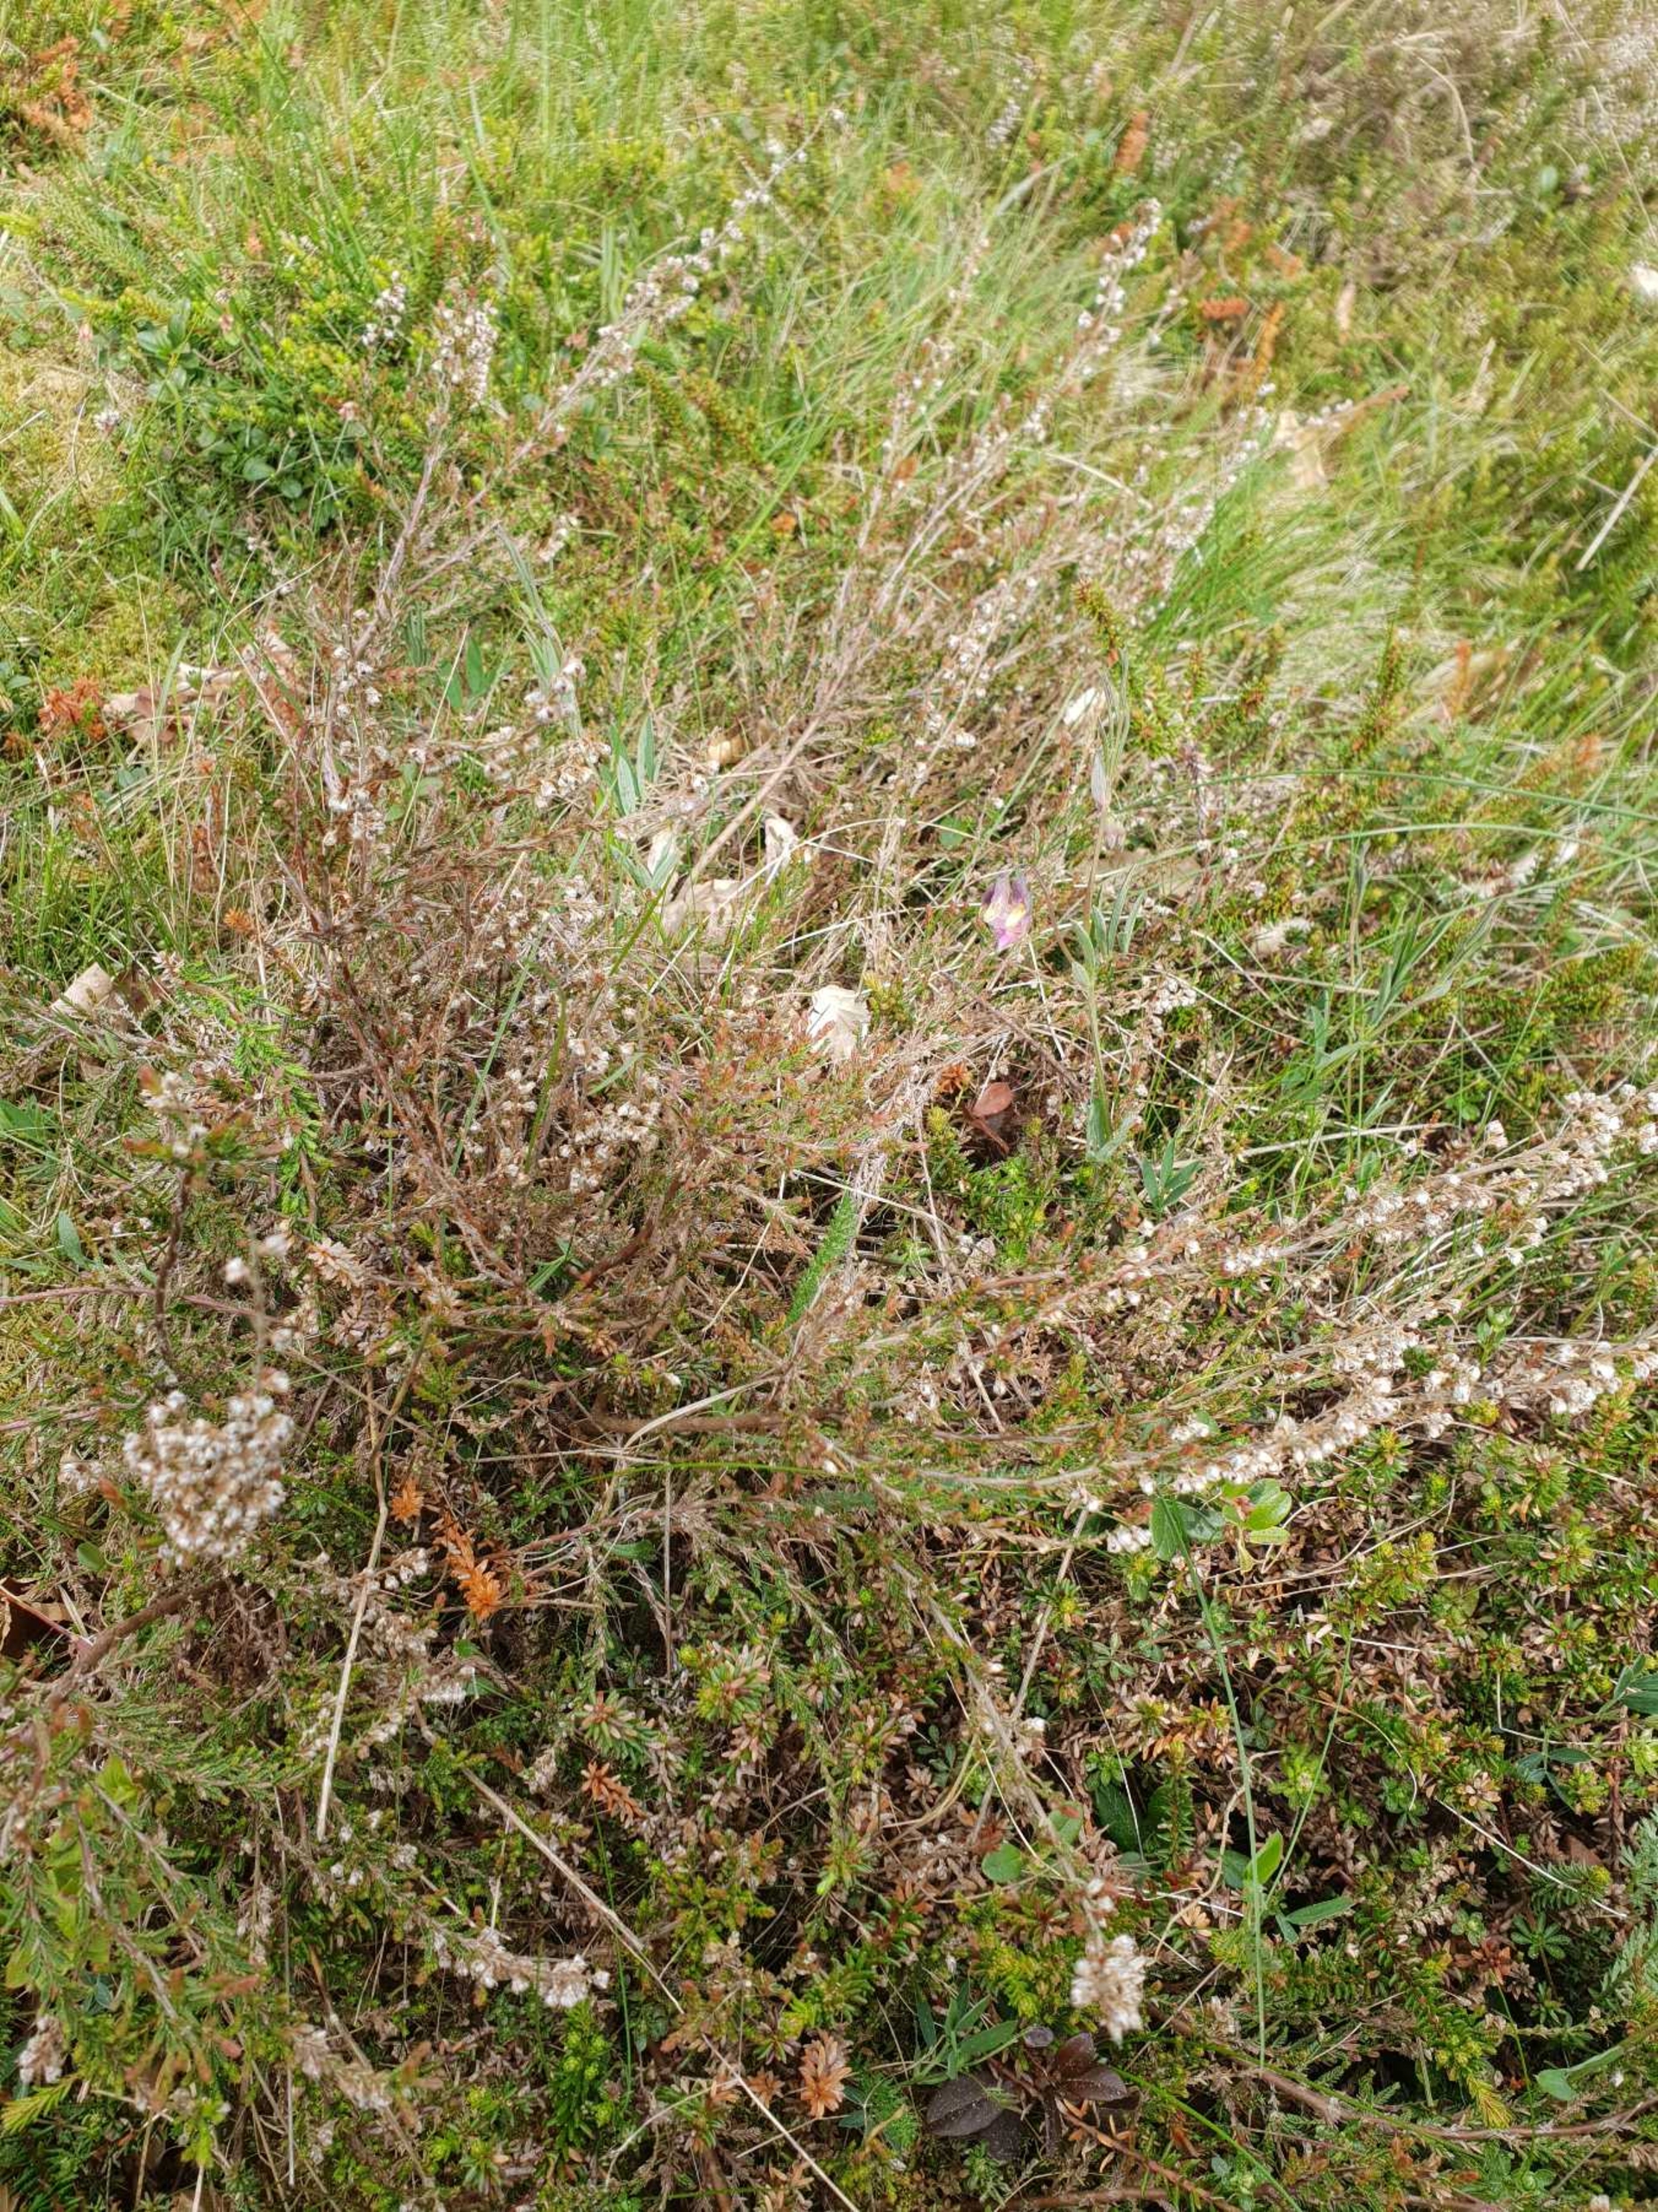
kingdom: Plantae
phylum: Tracheophyta
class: Magnoliopsida
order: Ericales
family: Ericaceae
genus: Calluna
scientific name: Calluna vulgaris
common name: Hedelyng
